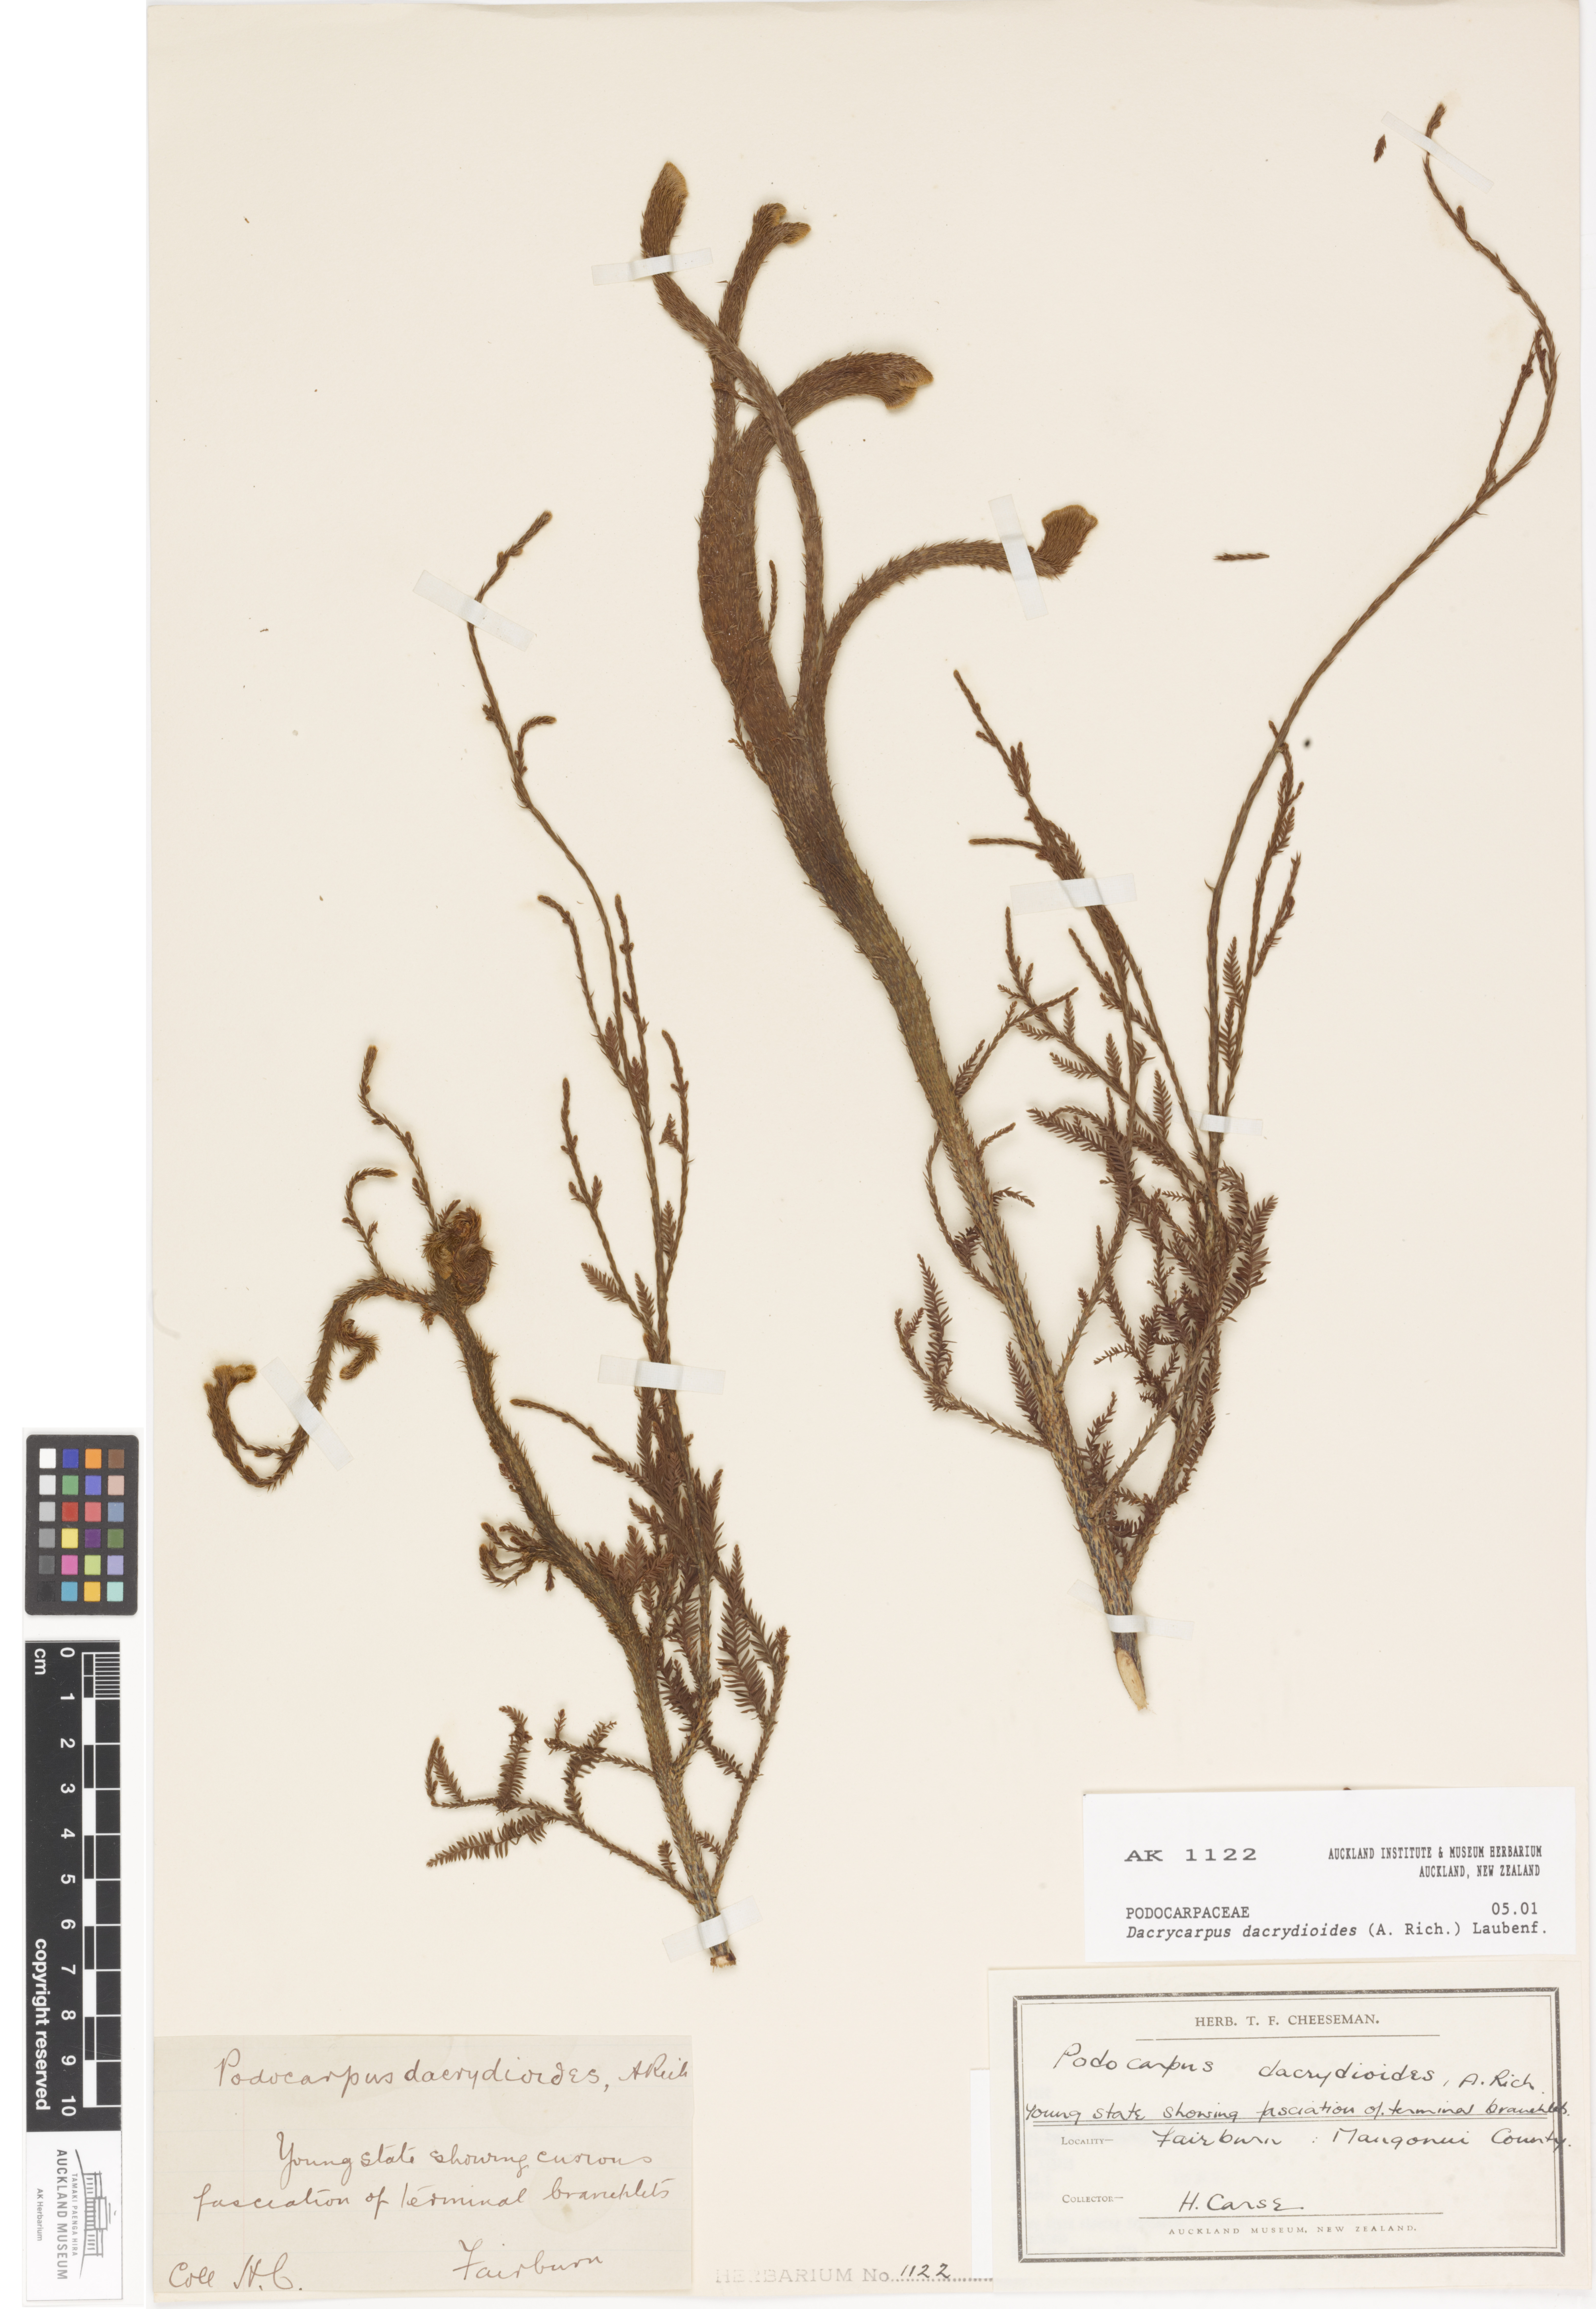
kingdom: Plantae
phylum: Tracheophyta
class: Pinopsida
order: Pinales
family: Podocarpaceae
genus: Dacrycarpus
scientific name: Dacrycarpus dacrydioides
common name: White pine
